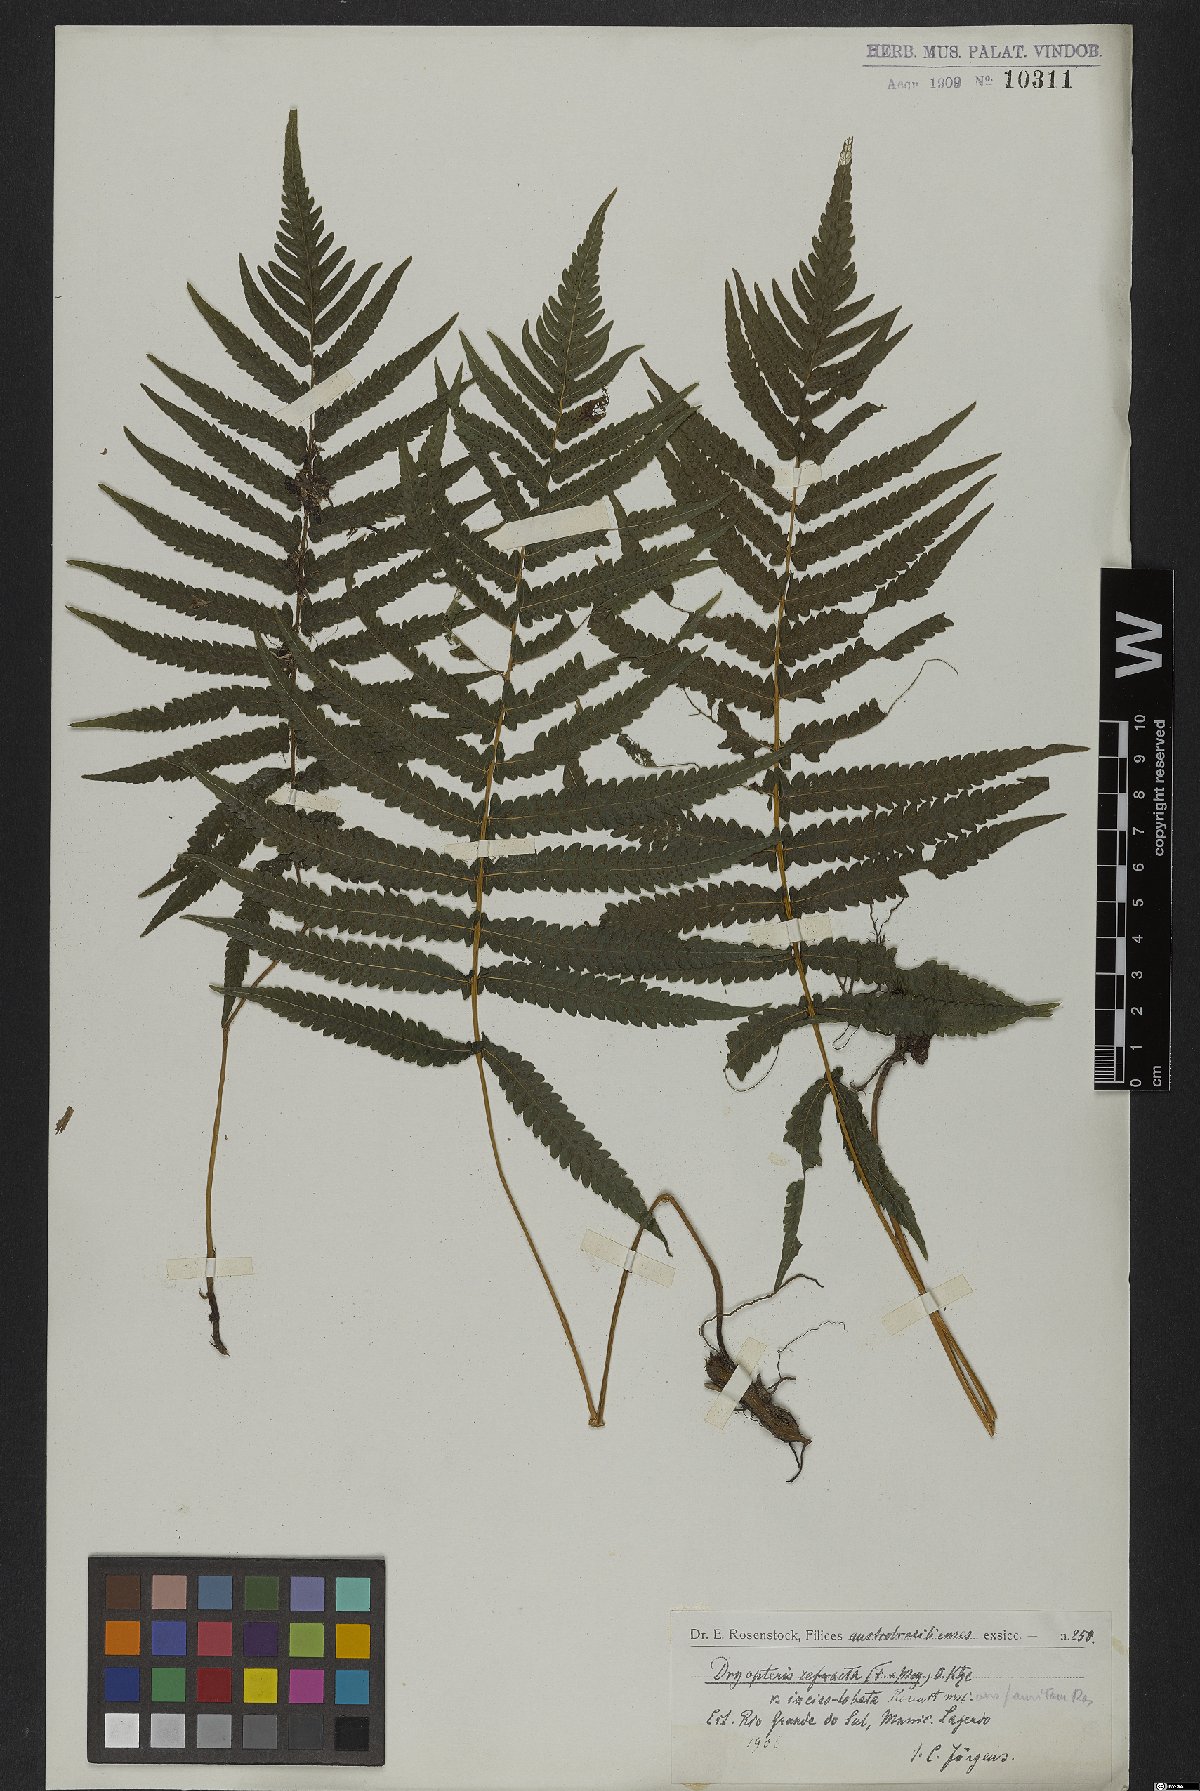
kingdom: Plantae
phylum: Tracheophyta
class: Polypodiopsida
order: Polypodiales
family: Thelypteridaceae
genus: Goniopteris
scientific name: Goniopteris refracta
